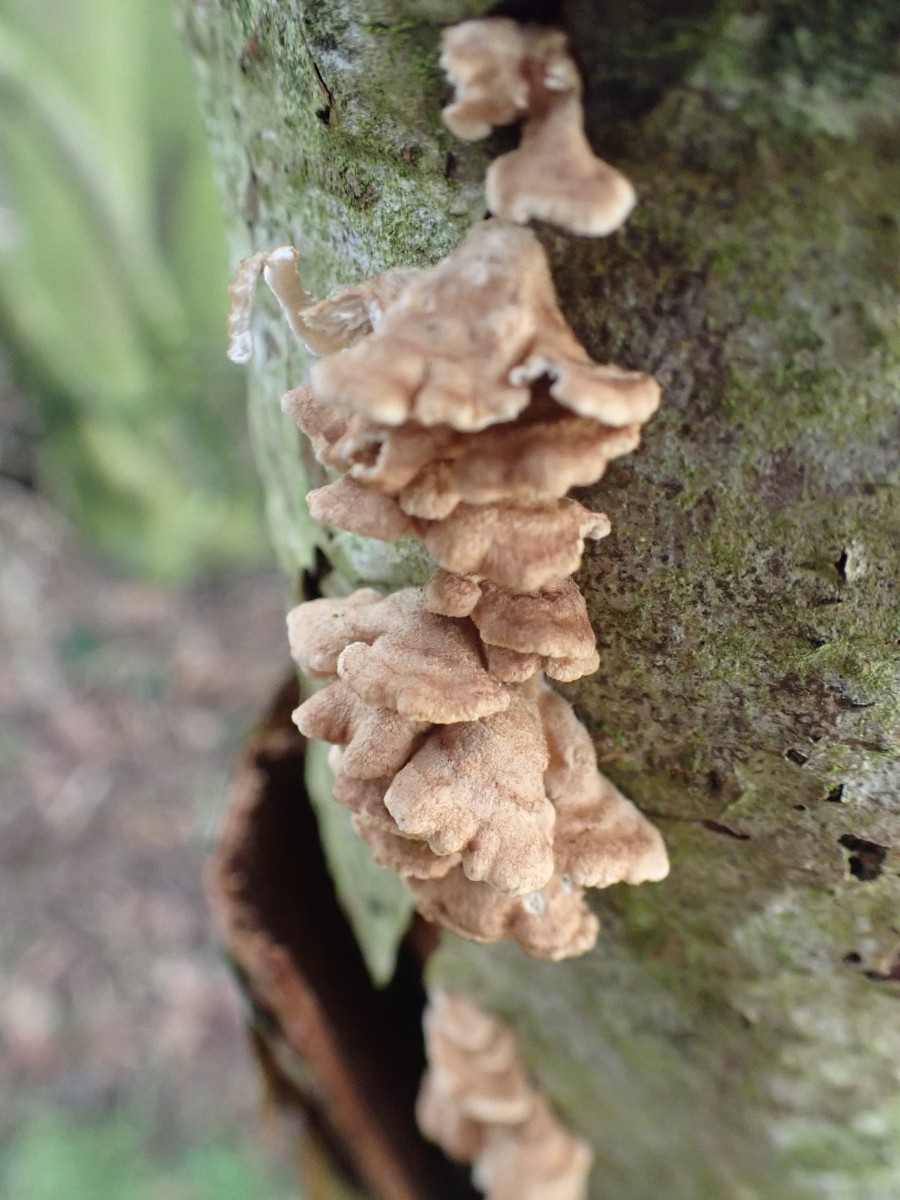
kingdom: Fungi
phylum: Basidiomycota
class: Agaricomycetes
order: Amylocorticiales
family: Amylocorticiaceae
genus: Plicaturopsis
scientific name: Plicaturopsis crispa
